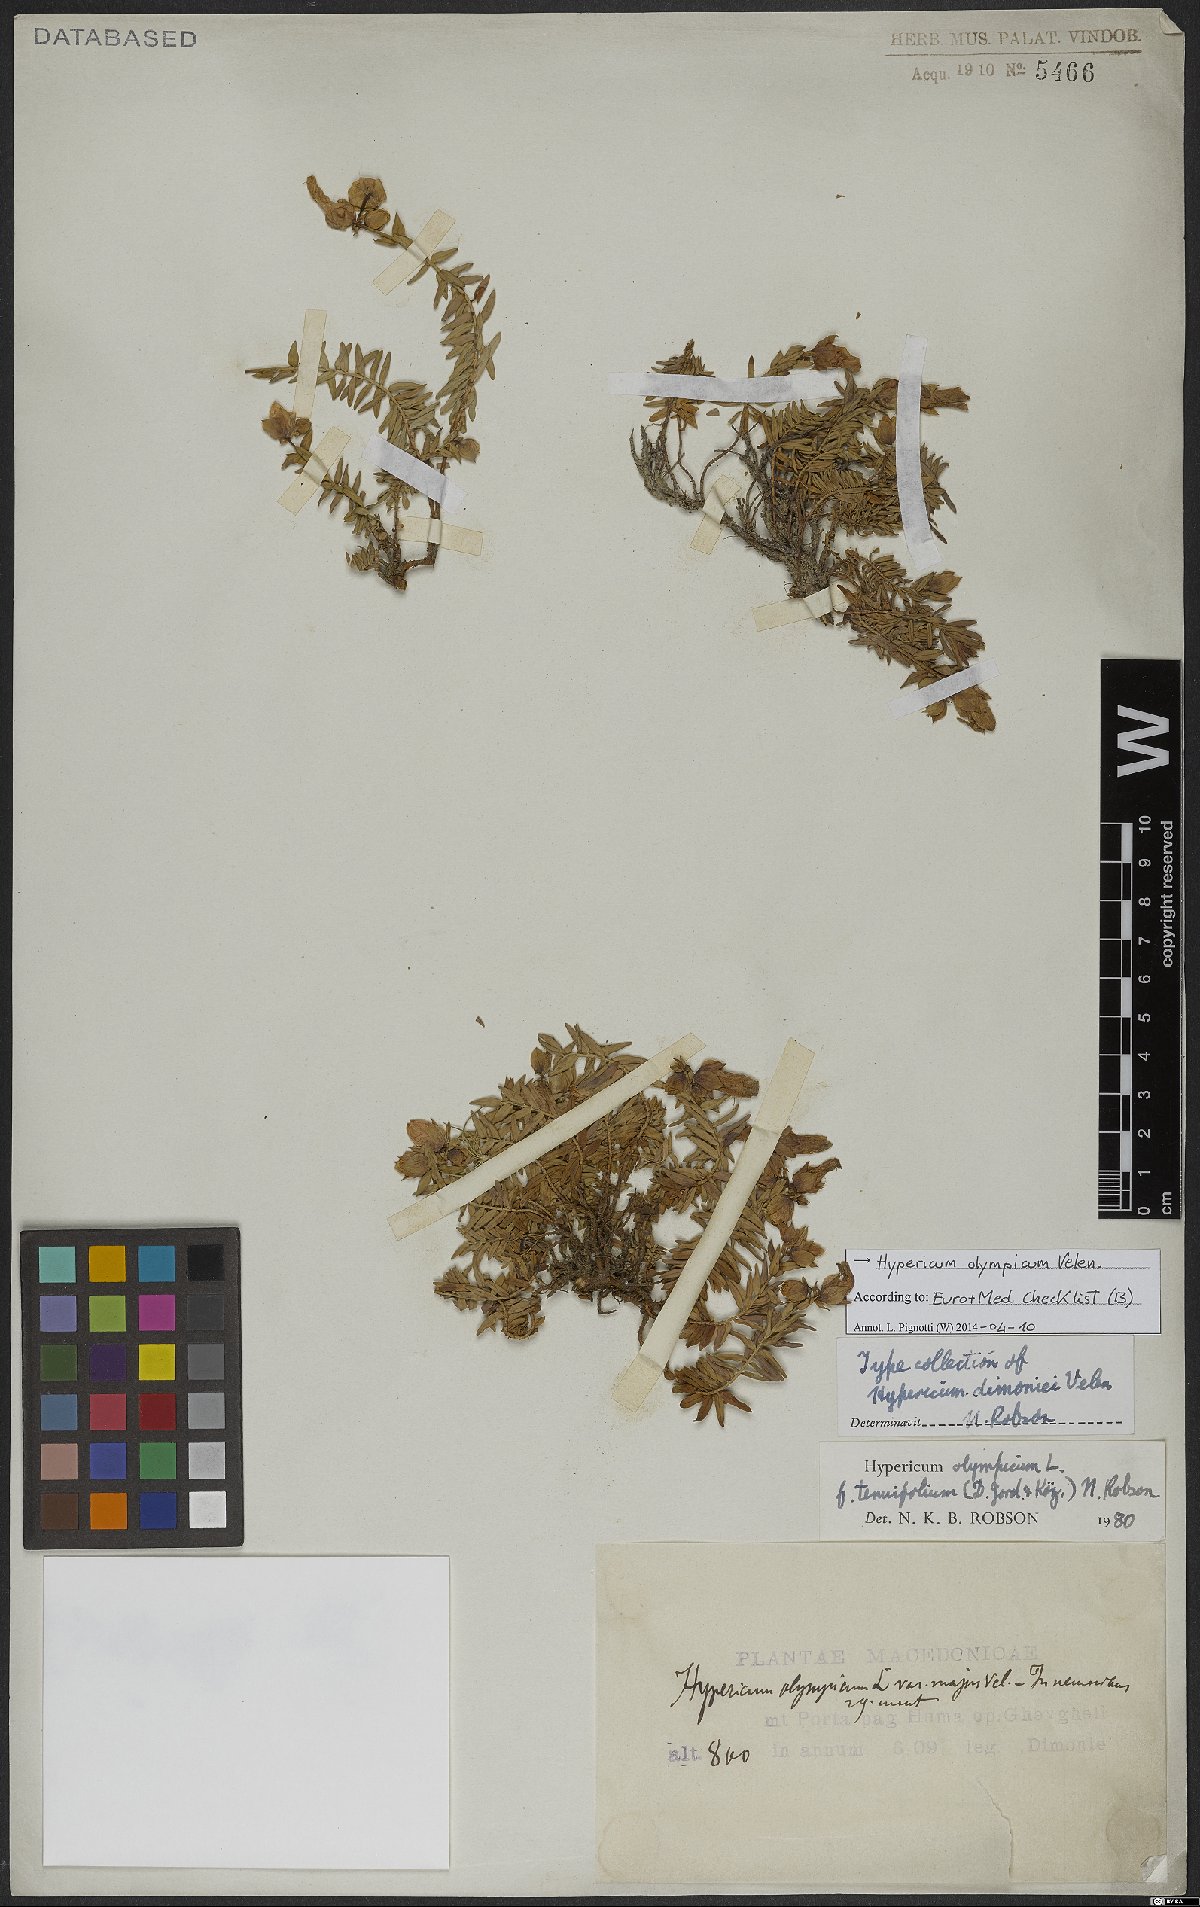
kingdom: Plantae
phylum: Tracheophyta
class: Magnoliopsida
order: Malpighiales
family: Hypericaceae
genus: Hypericum
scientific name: Hypericum olympicum
